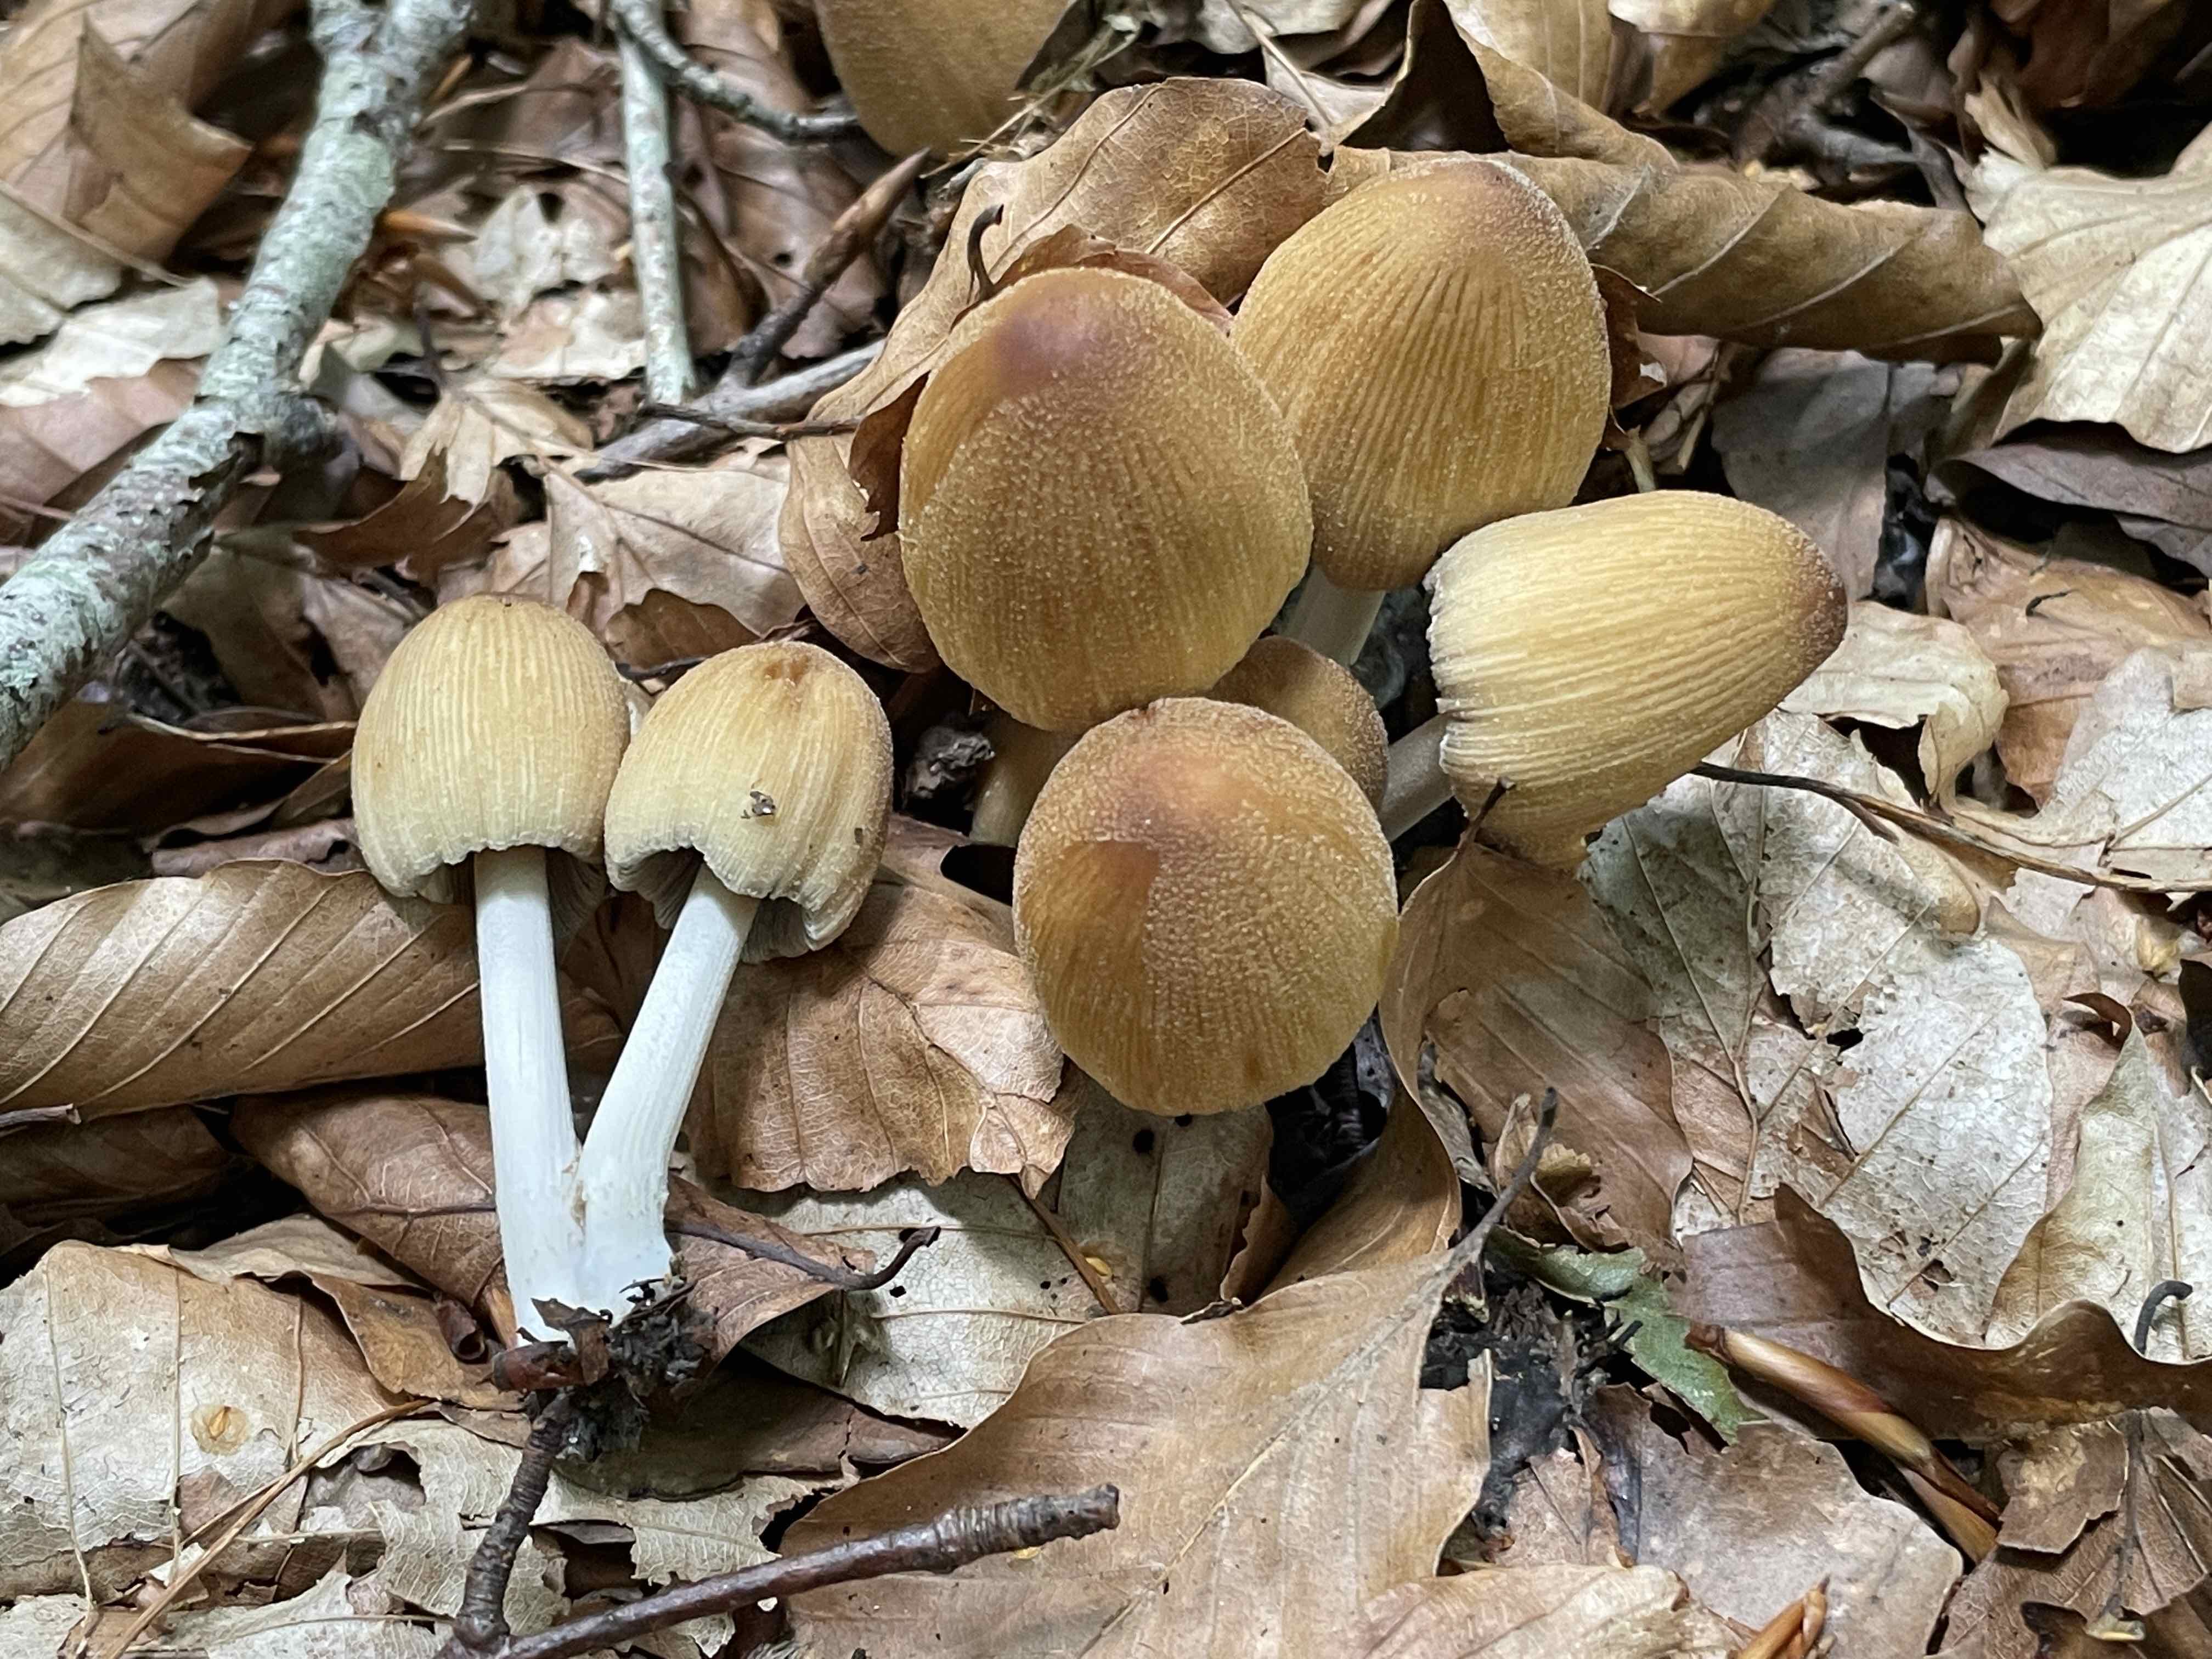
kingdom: Fungi
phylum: Basidiomycota
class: Agaricomycetes
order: Agaricales
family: Psathyrellaceae
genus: Coprinellus
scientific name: Coprinellus micaceus
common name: glimmer-blækhat
